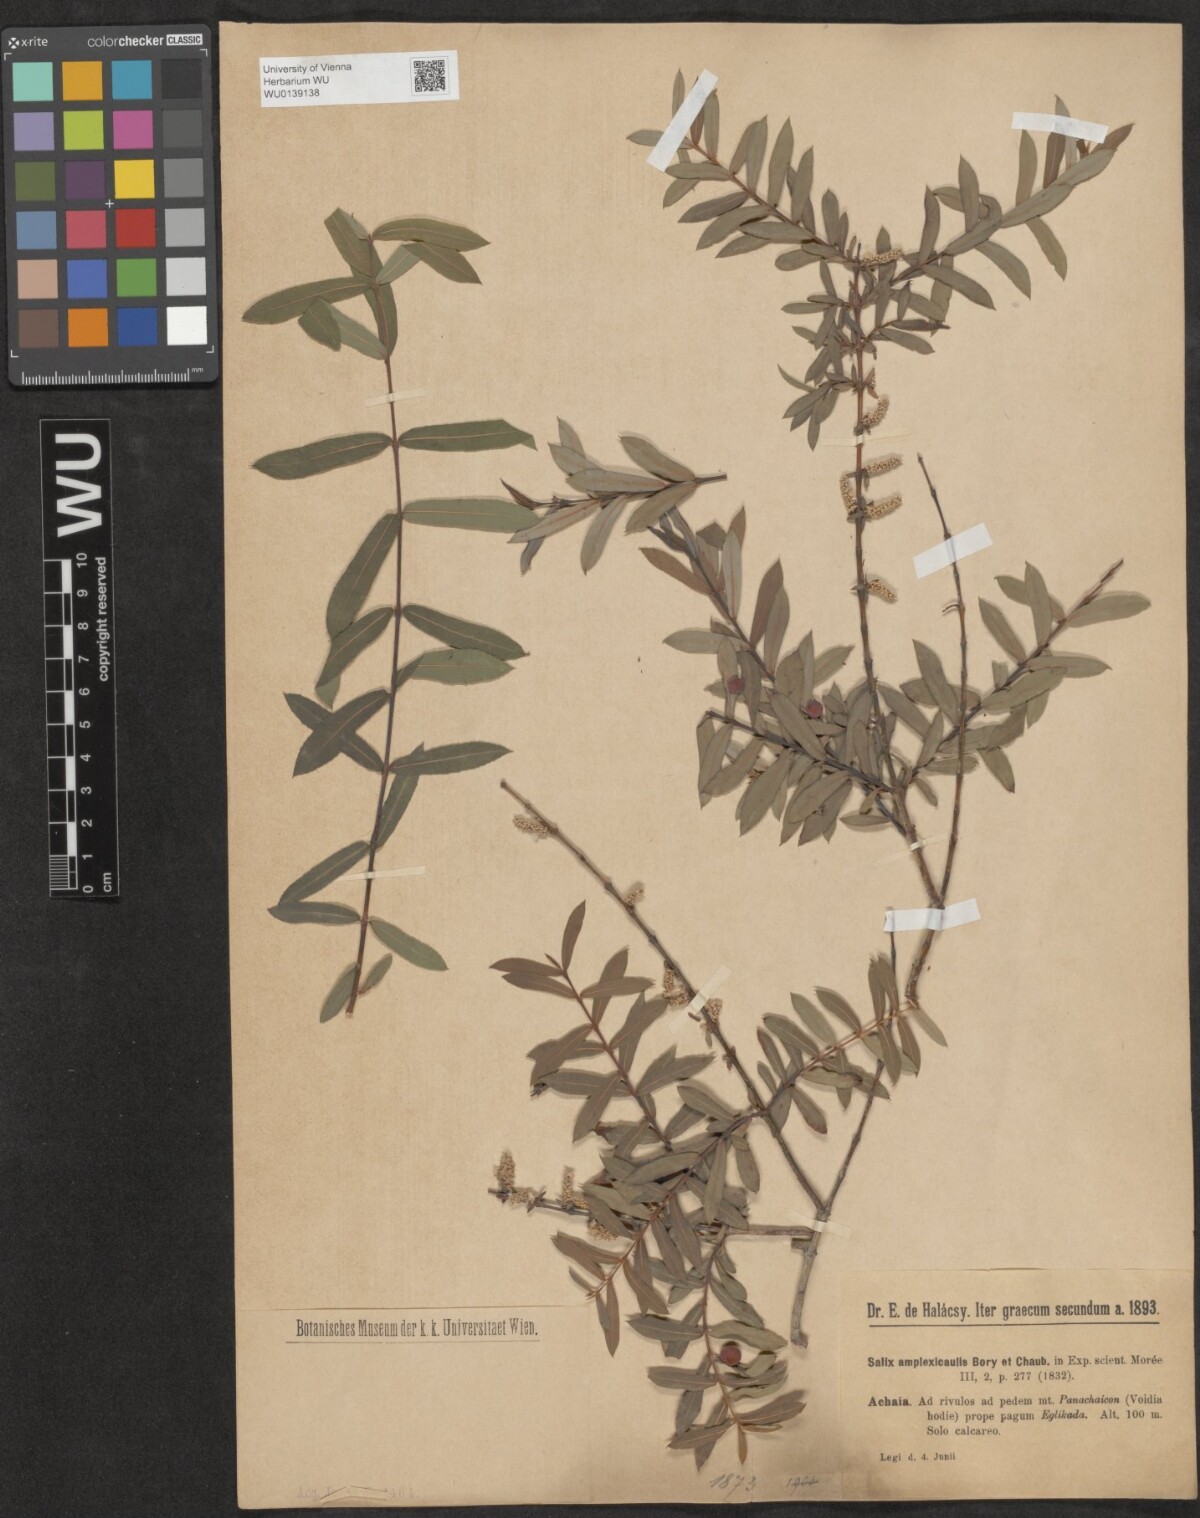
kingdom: Plantae
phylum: Tracheophyta
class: Magnoliopsida
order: Malpighiales
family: Salicaceae
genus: Salix
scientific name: Salix amplexicaulis
